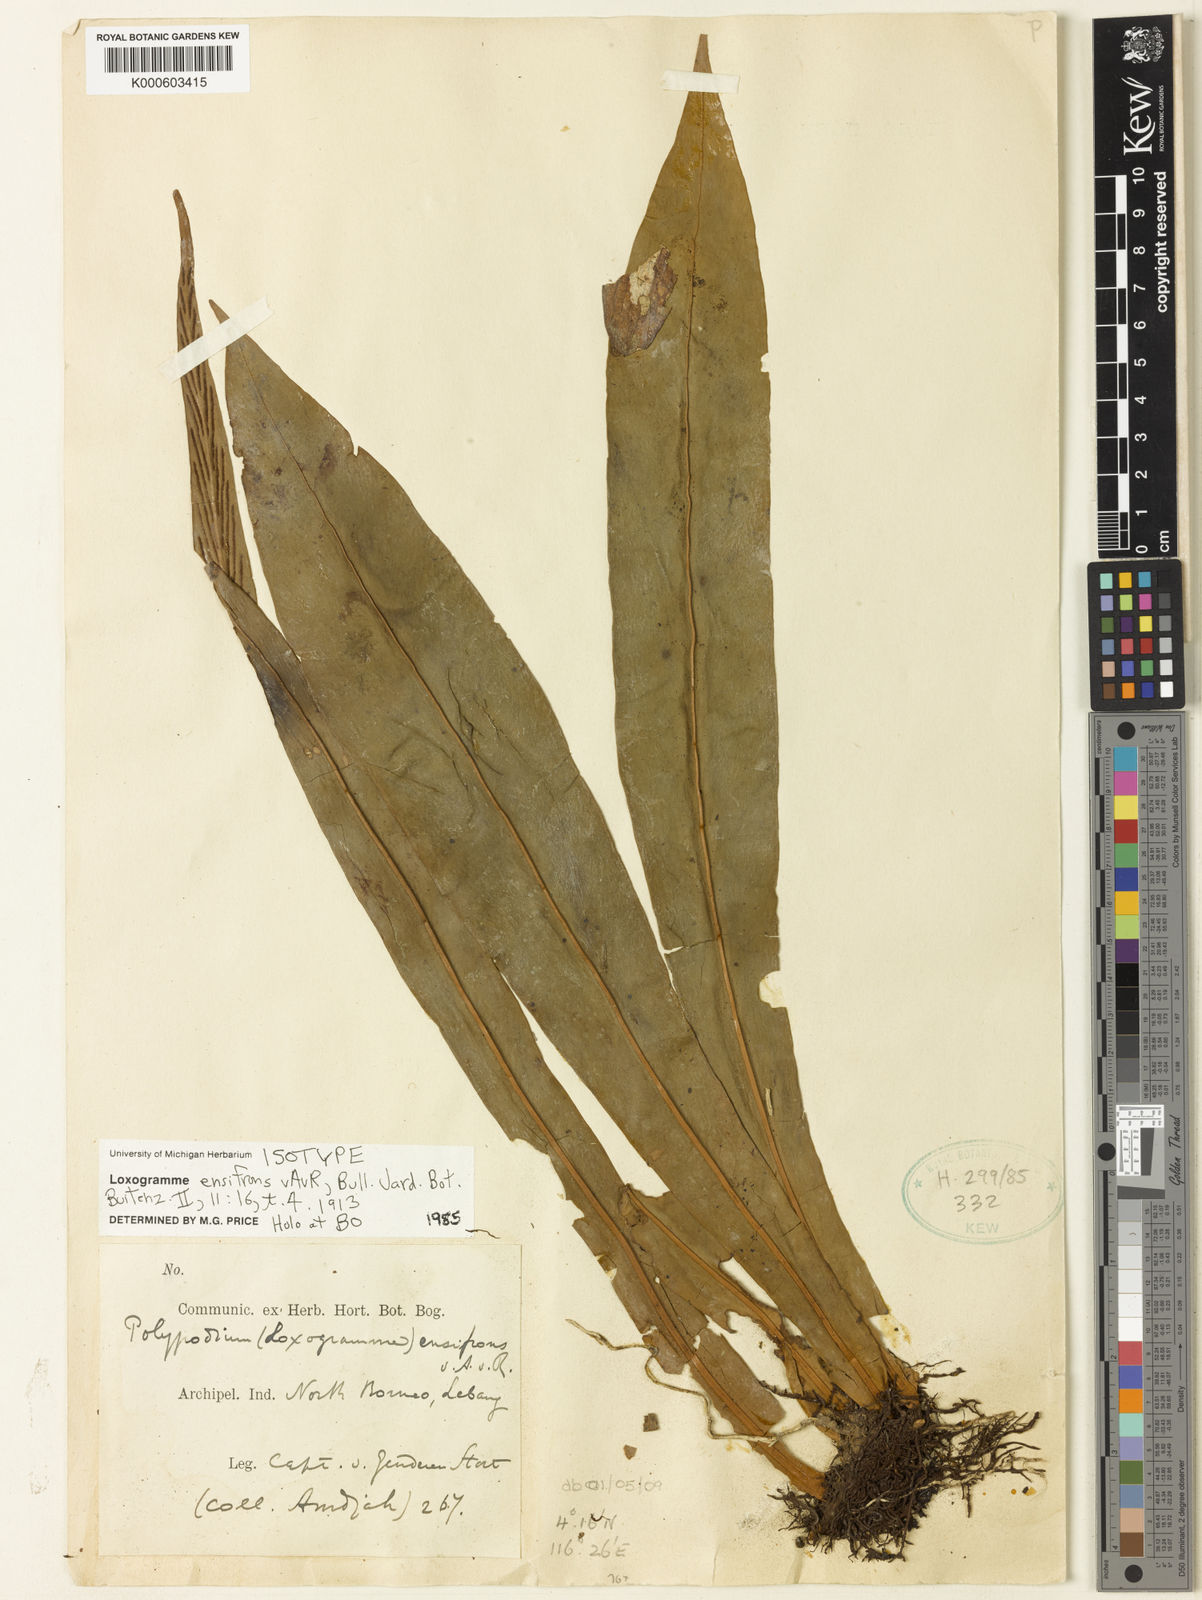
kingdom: Plantae
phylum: Tracheophyta
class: Polypodiopsida
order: Polypodiales
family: Polypodiaceae
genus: Loxogramme
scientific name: Loxogramme ensifrons
